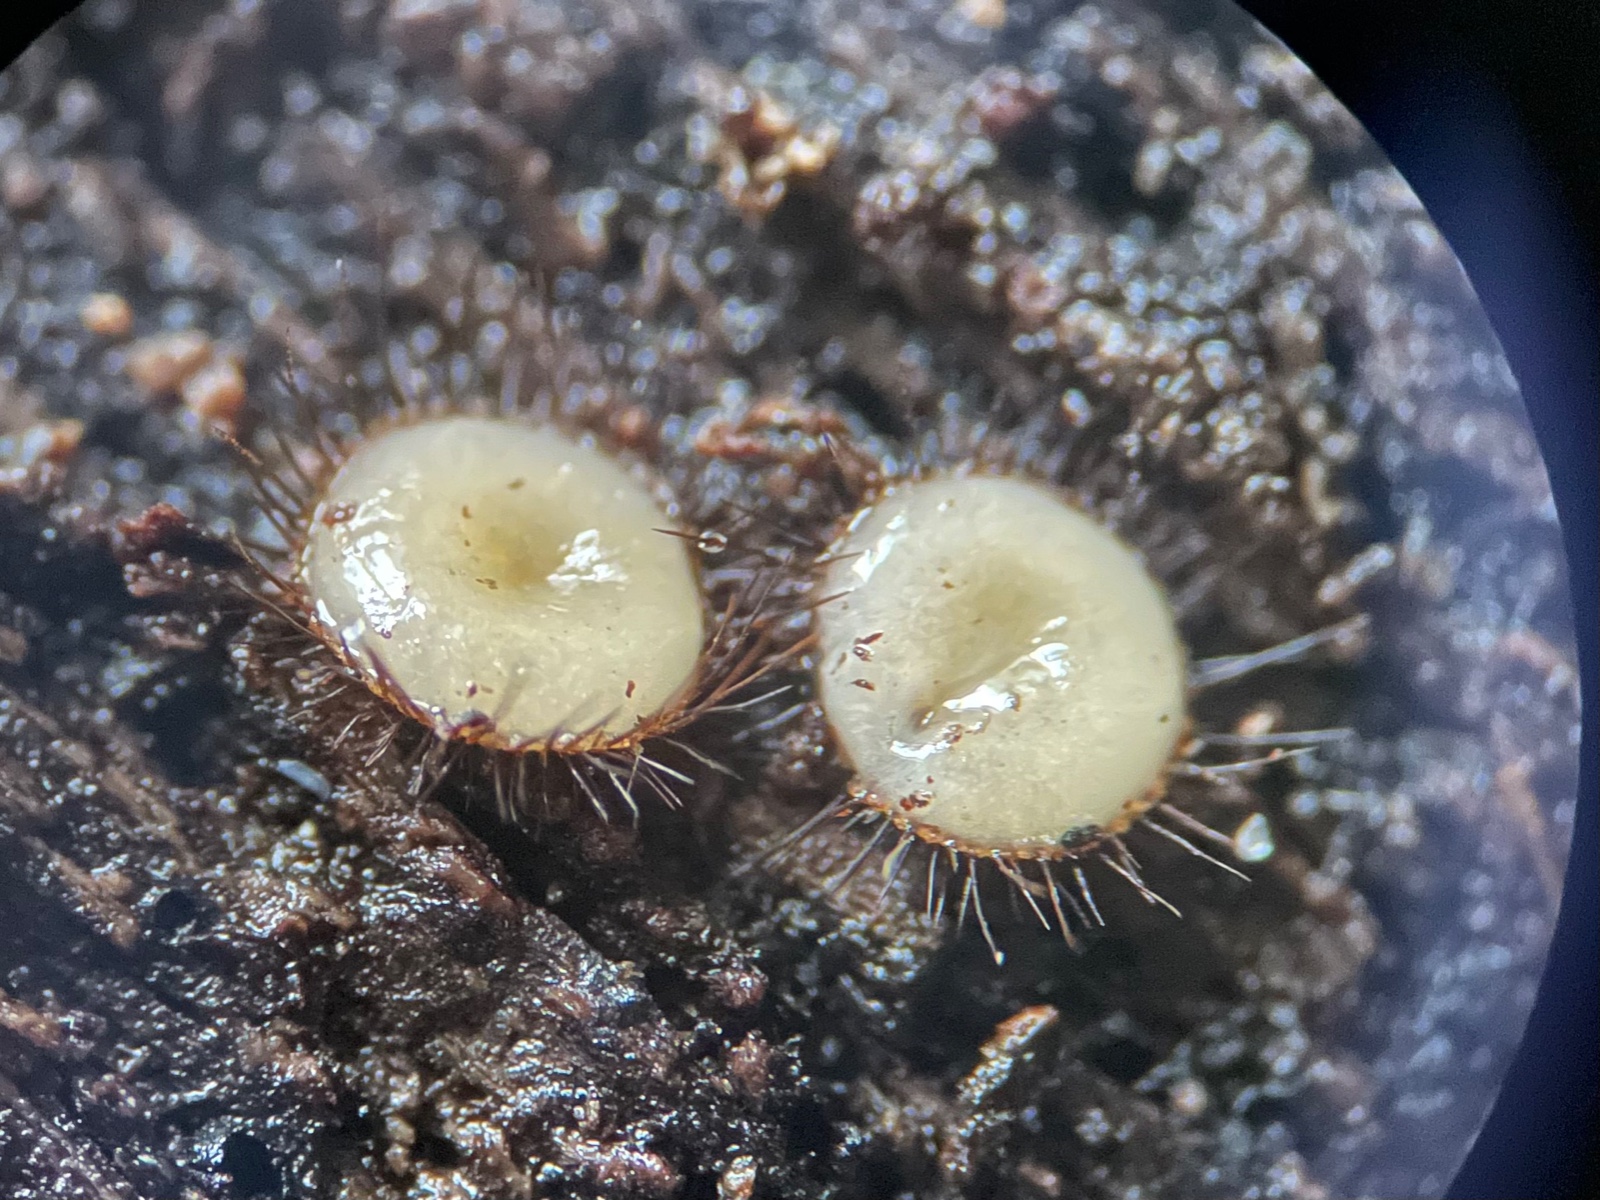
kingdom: Fungi
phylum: Ascomycota
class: Pezizomycetes
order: Pezizales
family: Pyronemataceae
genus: Scutellinia
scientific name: Scutellinia setosa
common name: pindsvine-skjoldbæger
